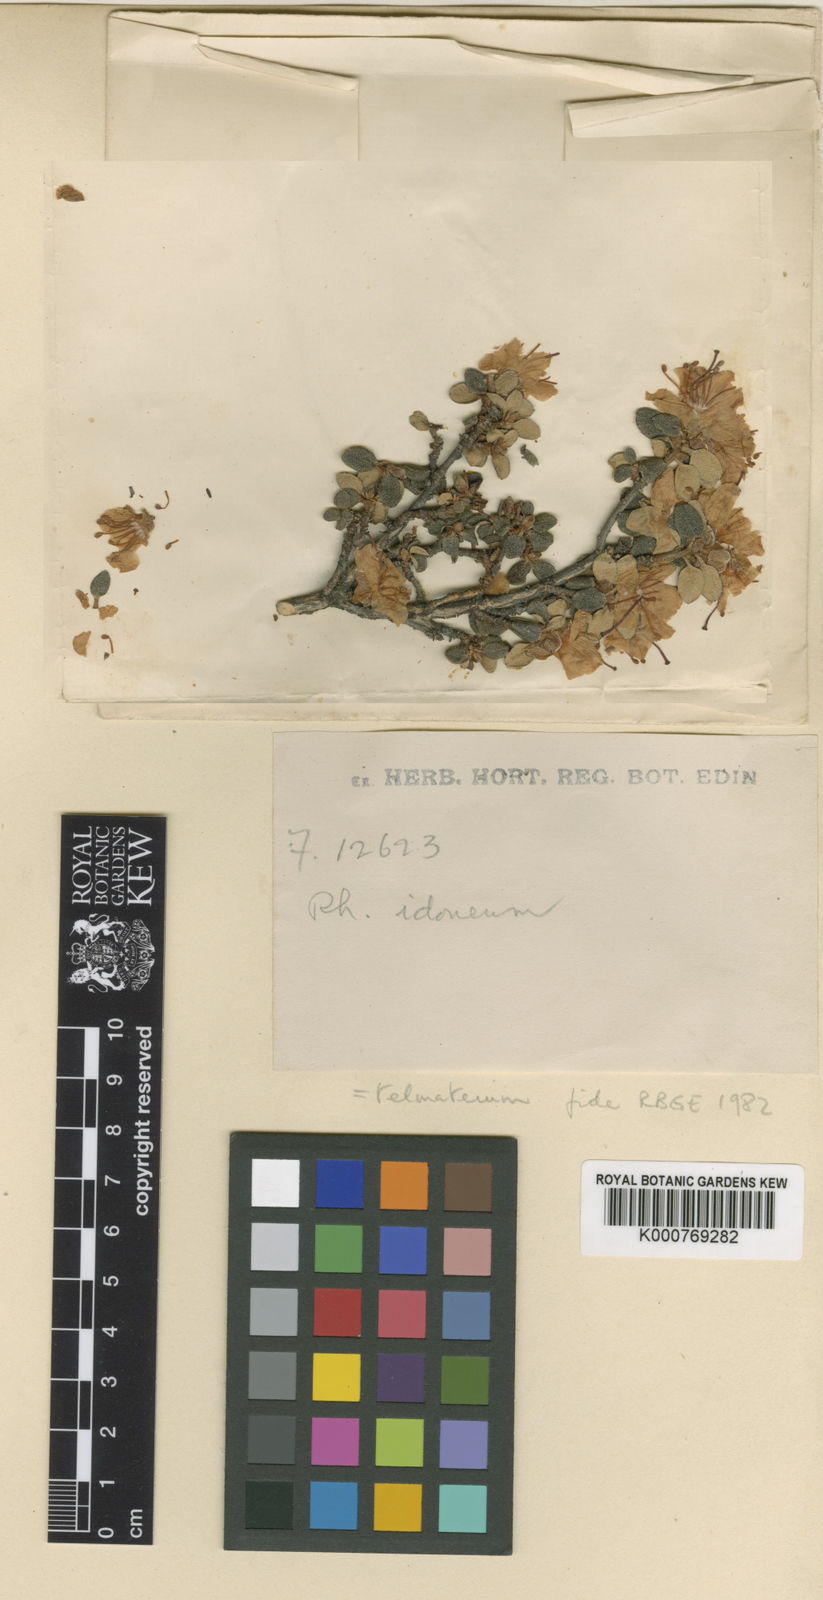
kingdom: Plantae
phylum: Tracheophyta
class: Magnoliopsida
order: Ericales
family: Ericaceae
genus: Rhododendron
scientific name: Rhododendron telmateium
